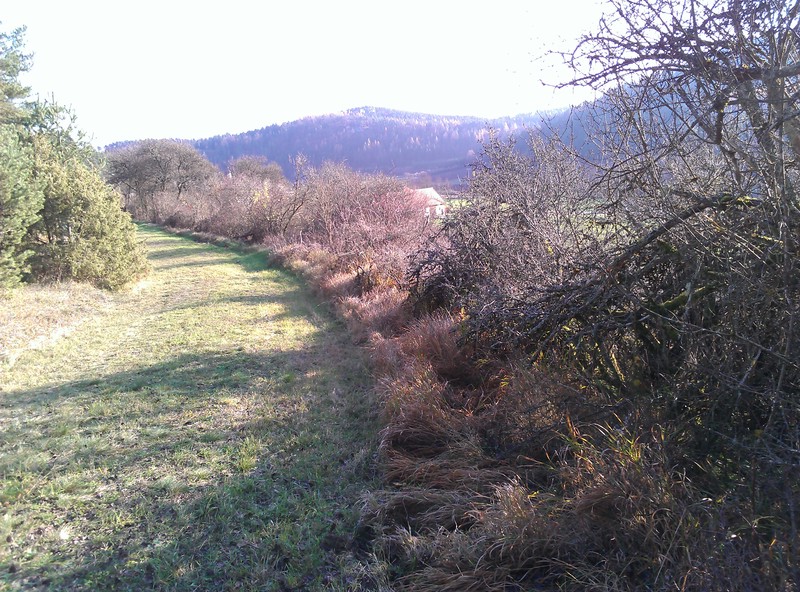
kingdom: Fungi
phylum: Ascomycota
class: Dothideomycetes
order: Lichenoconiales
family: Lichenoconiaceae
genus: Lichenoconium
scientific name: Lichenoconium erodens
